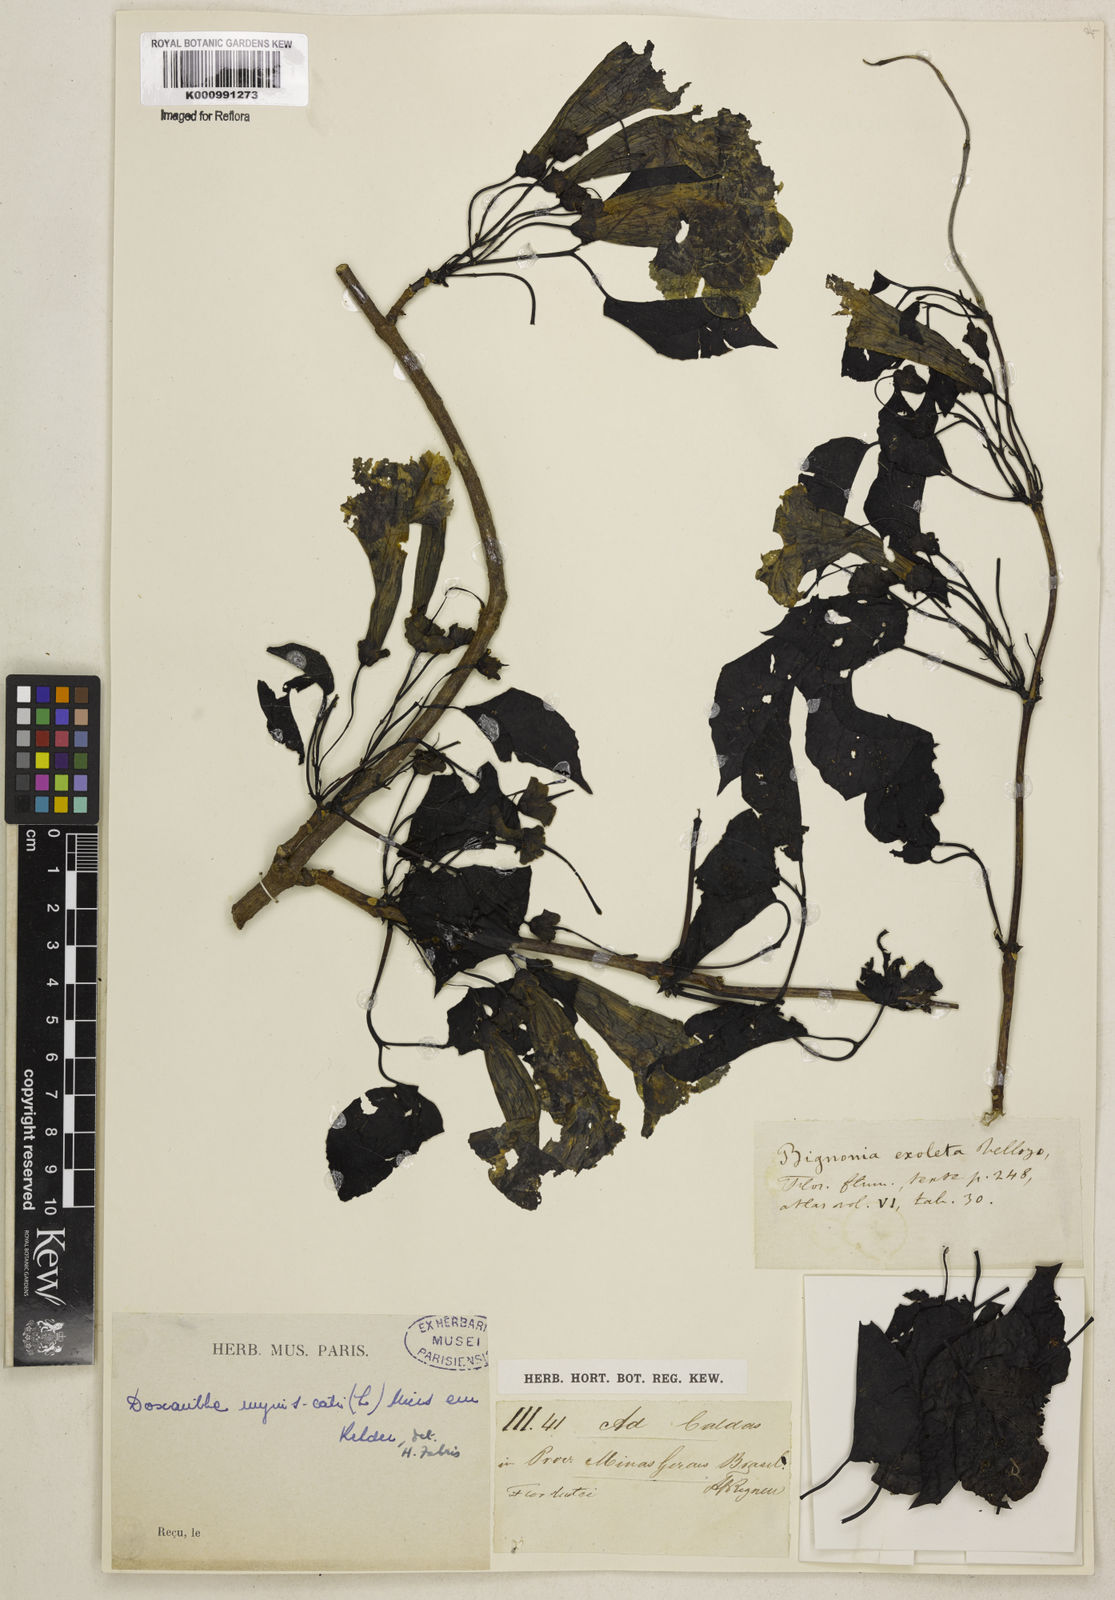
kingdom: Plantae
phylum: Tracheophyta
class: Magnoliopsida
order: Lamiales
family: Bignoniaceae
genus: Dolichandra
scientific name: Dolichandra unguis-cati
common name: Catclaw vine
